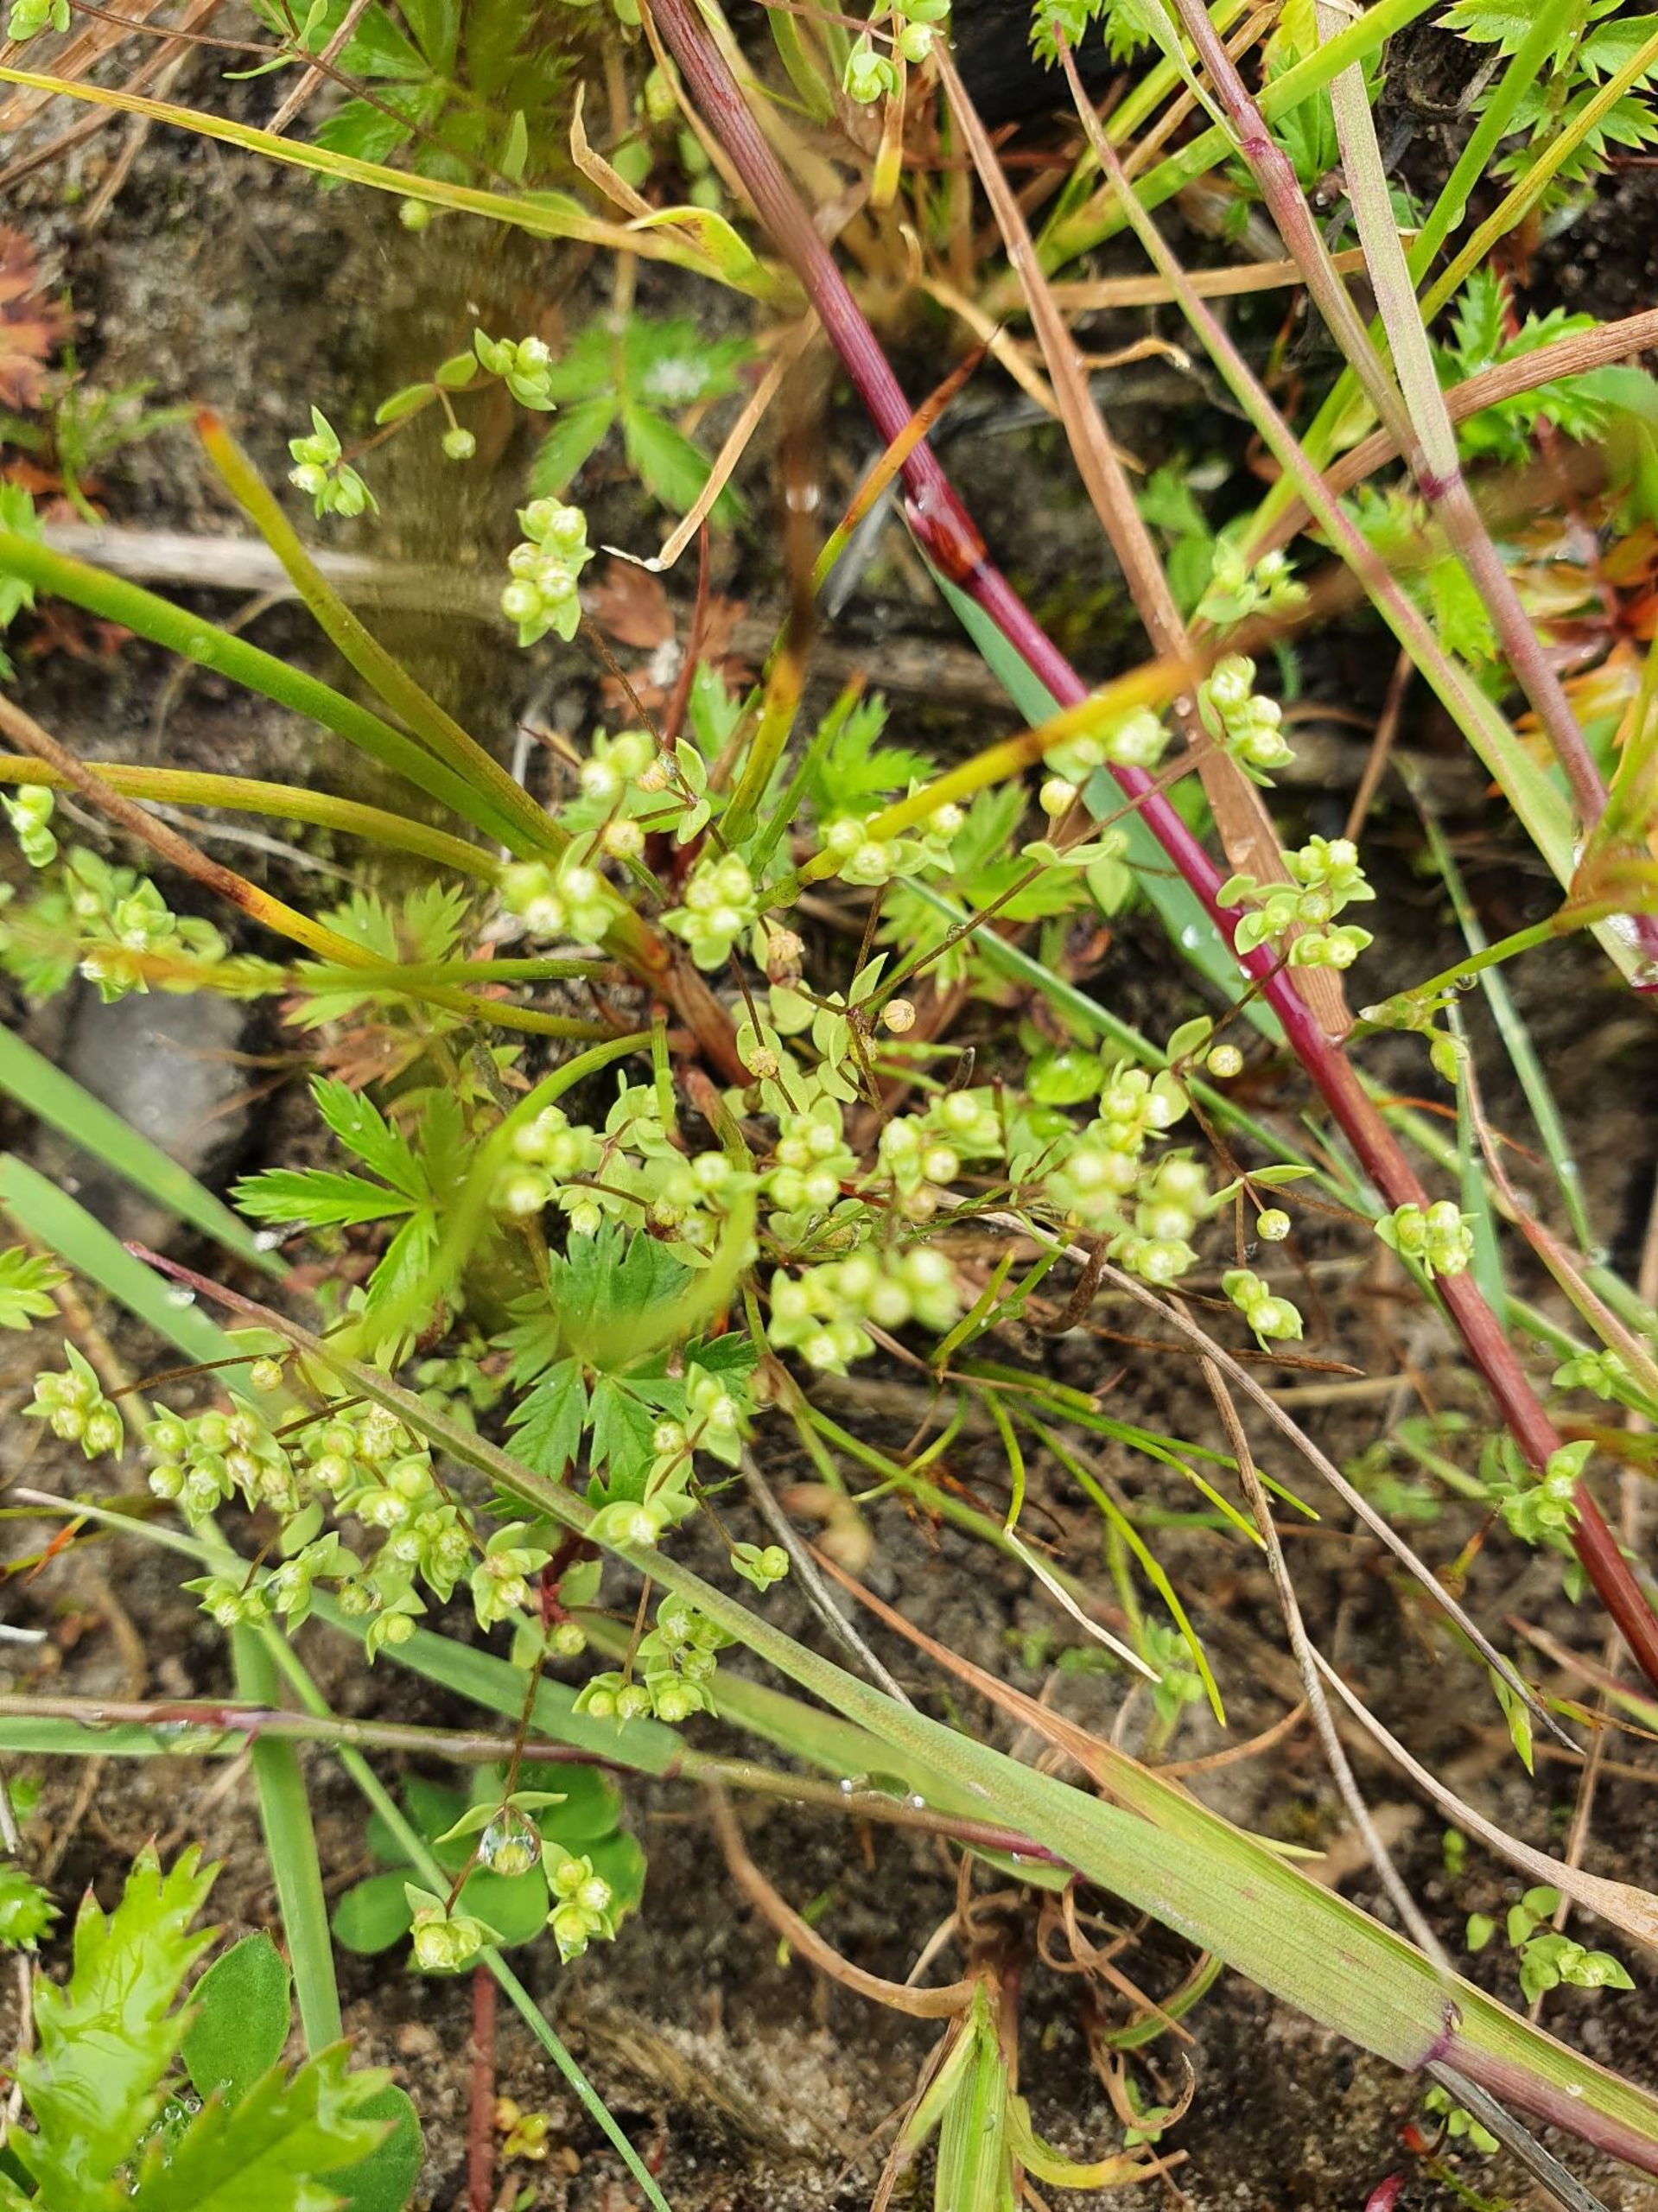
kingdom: Plantae
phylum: Tracheophyta
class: Magnoliopsida
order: Malpighiales
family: Linaceae
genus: Radiola
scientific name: Radiola linoides
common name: Tusindfrø
